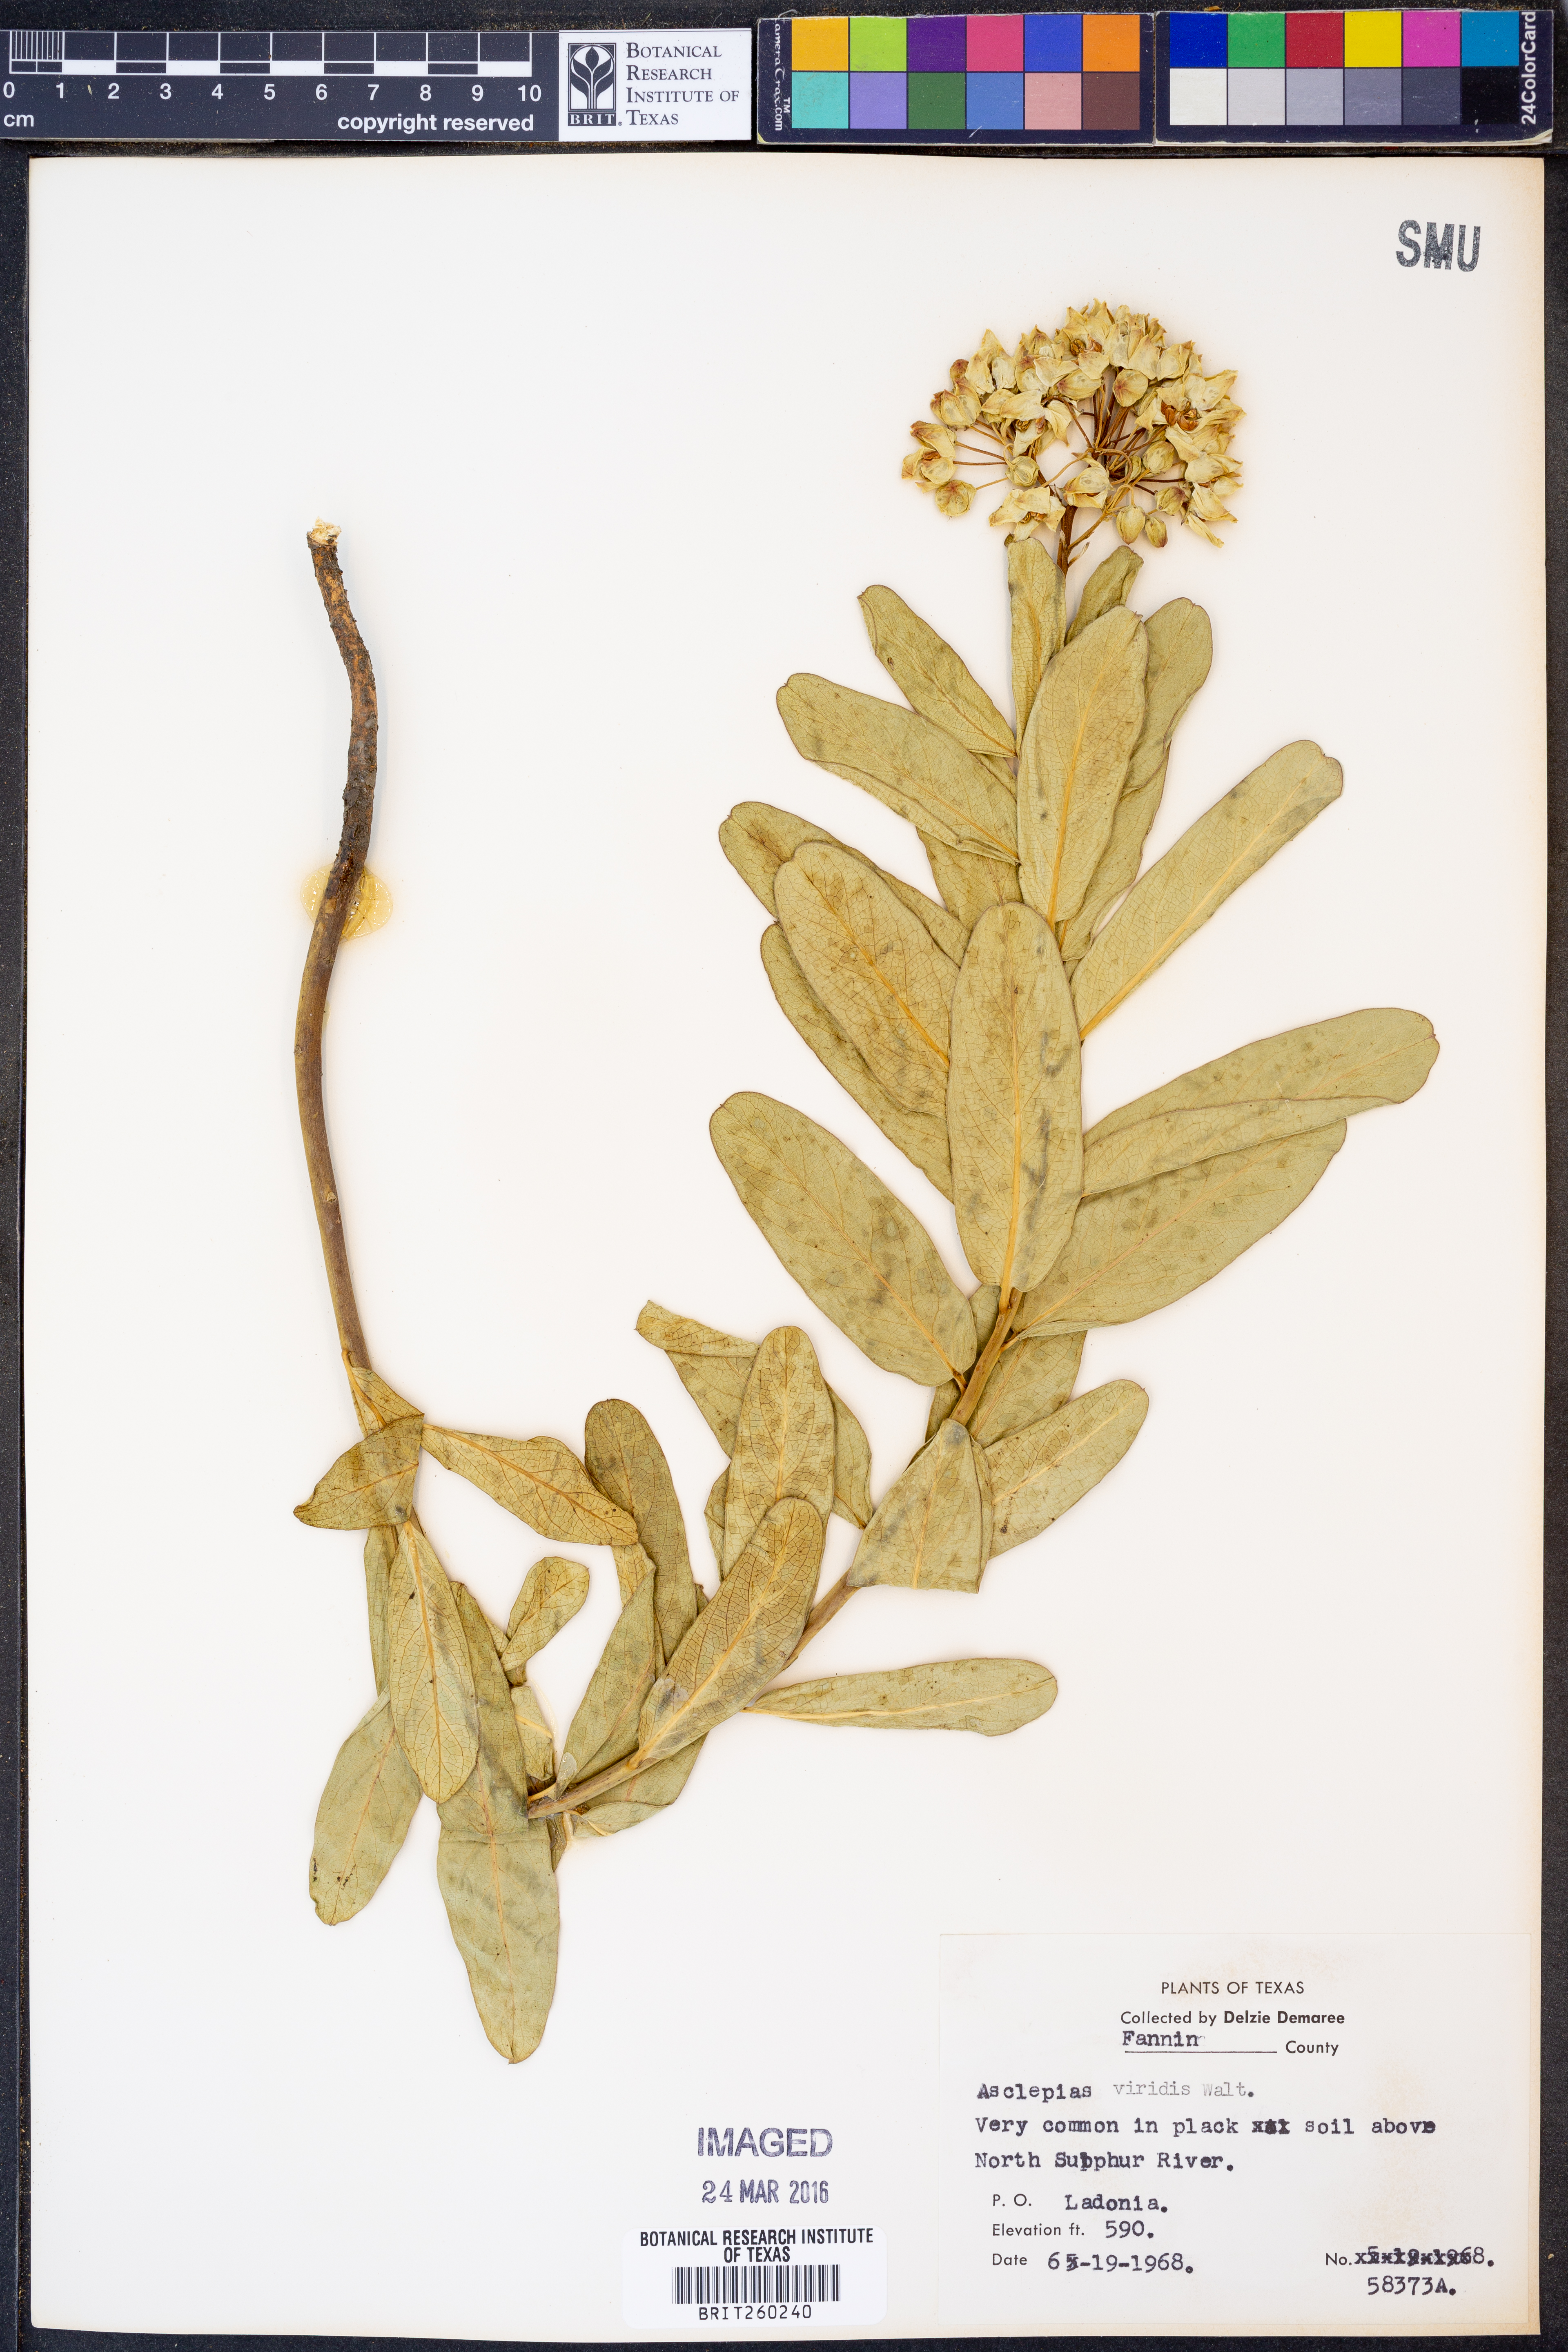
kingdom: Plantae
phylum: Tracheophyta
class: Magnoliopsida
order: Gentianales
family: Apocynaceae
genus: Asclepias
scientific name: Asclepias viridis
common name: Antelope-horns
